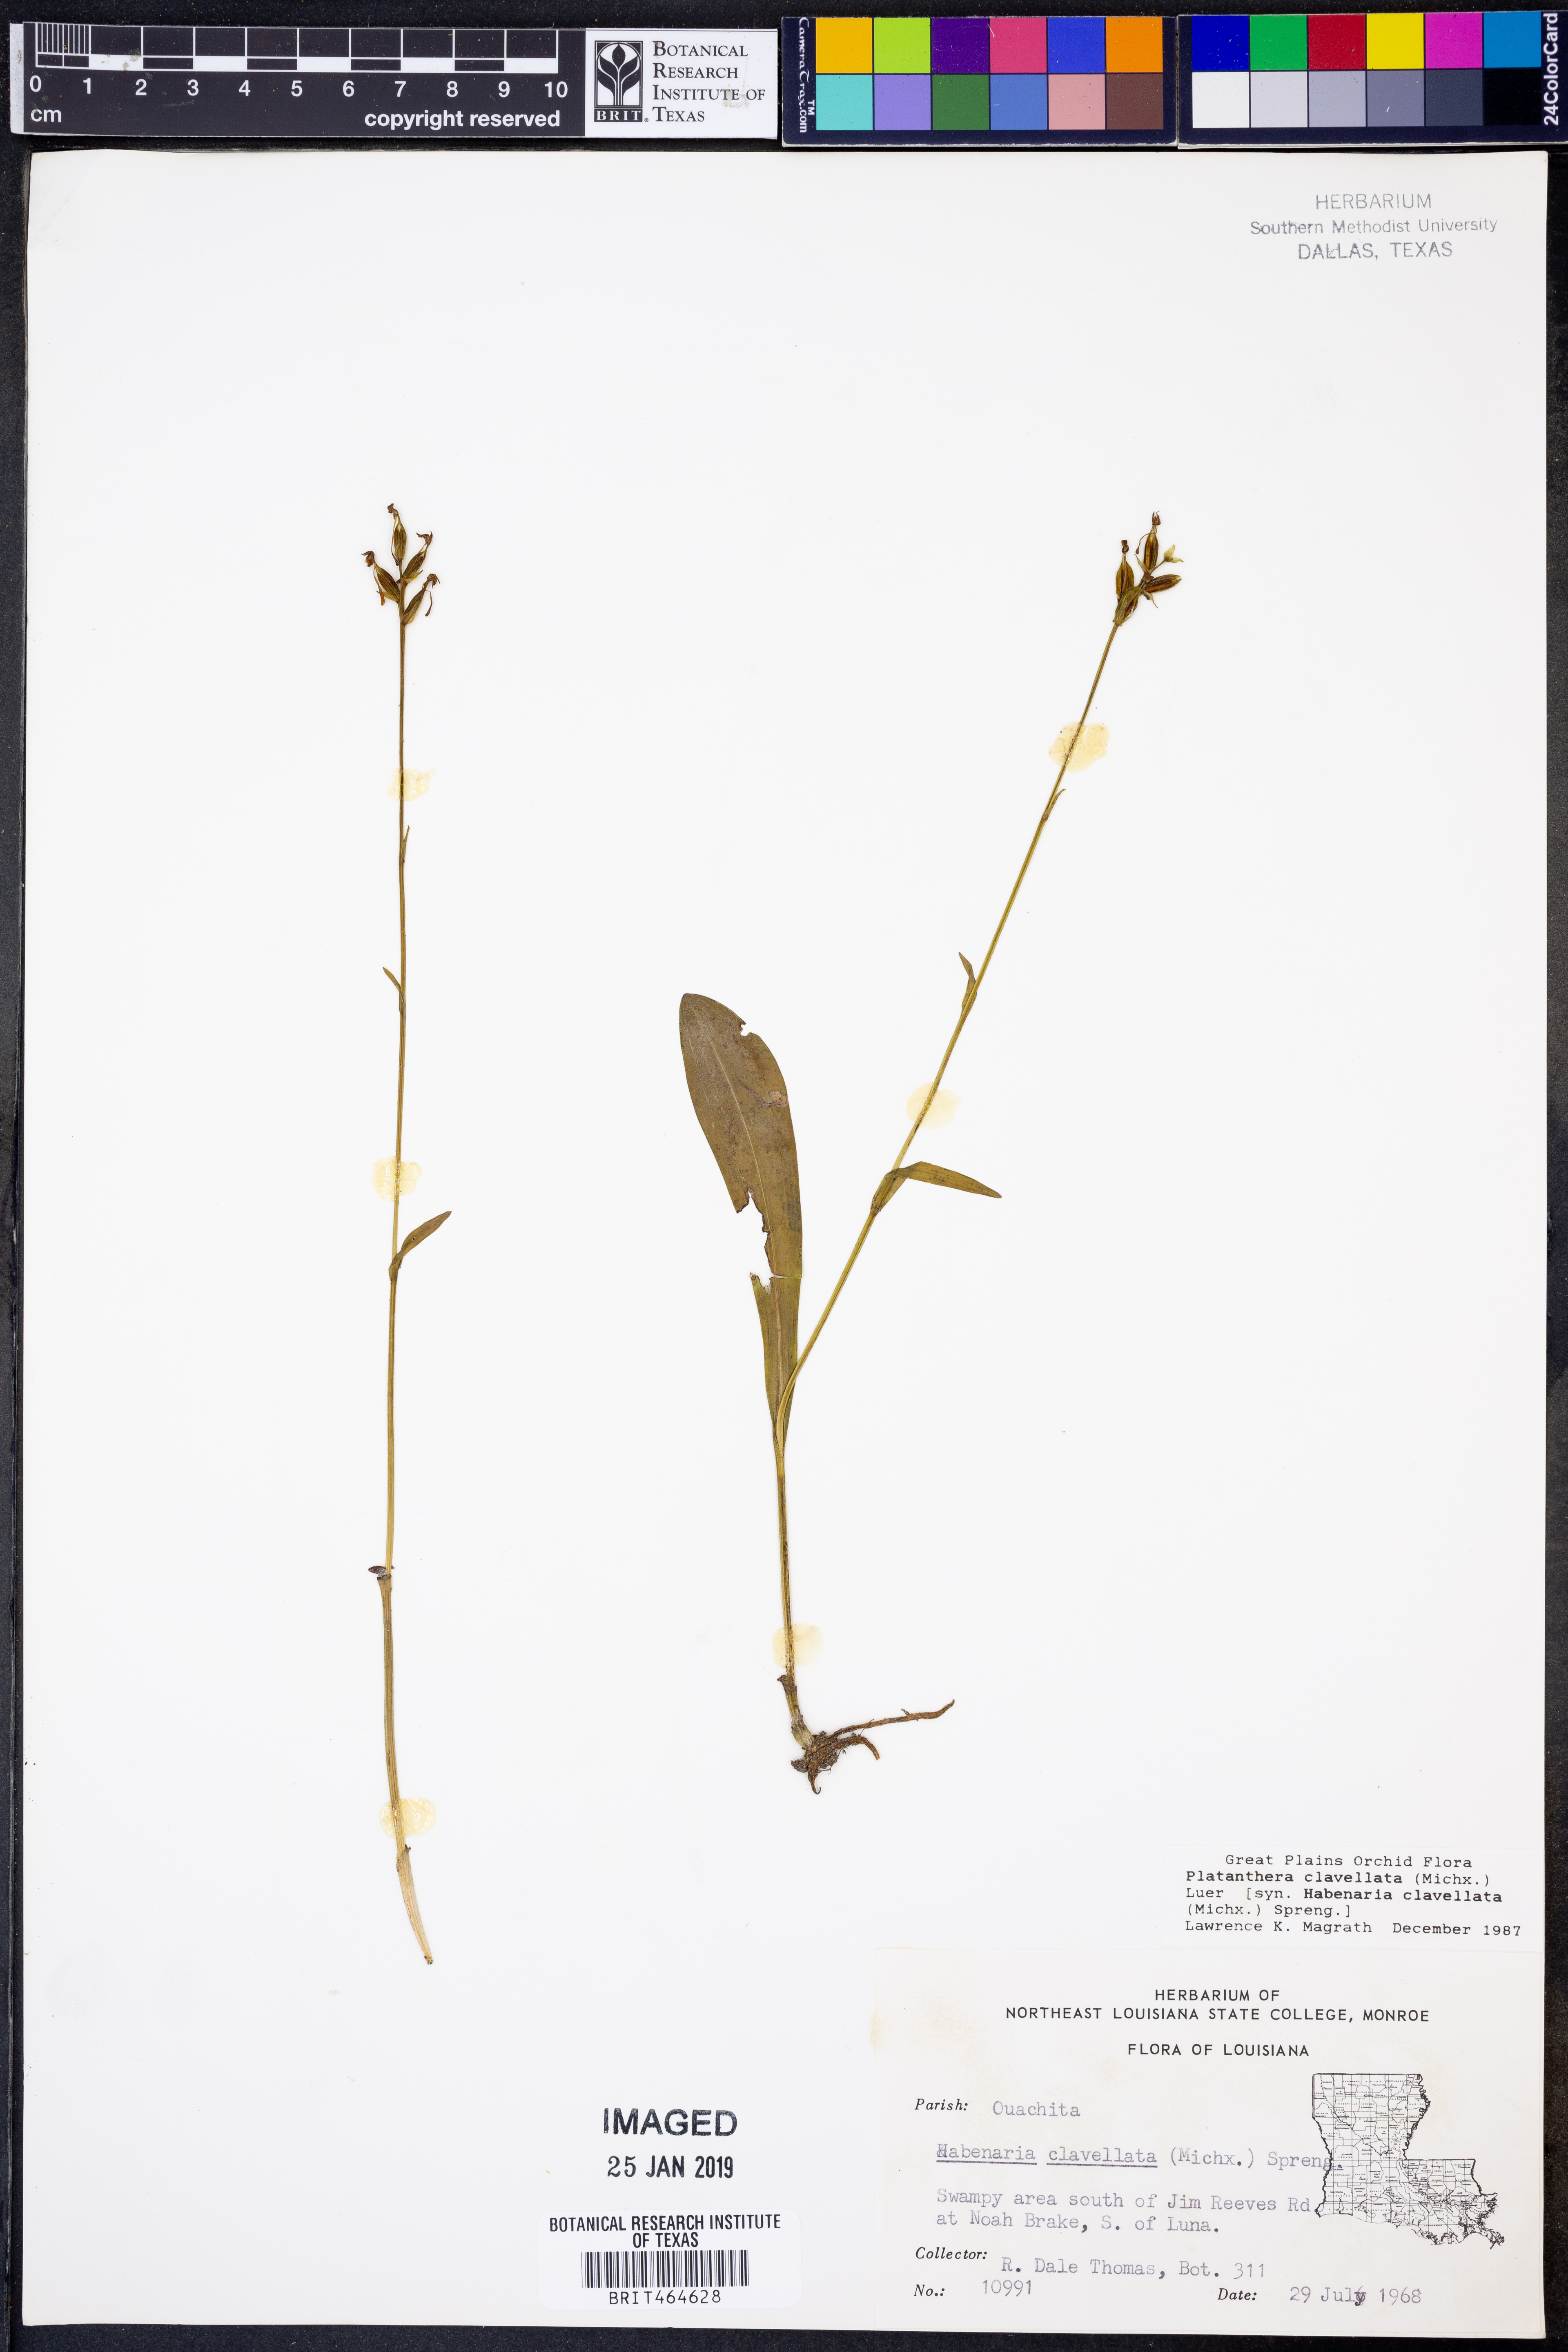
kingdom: Plantae
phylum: Tracheophyta
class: Liliopsida
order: Asparagales
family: Orchidaceae
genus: Platanthera
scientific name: Platanthera clavellata
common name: Club-spur orchid
